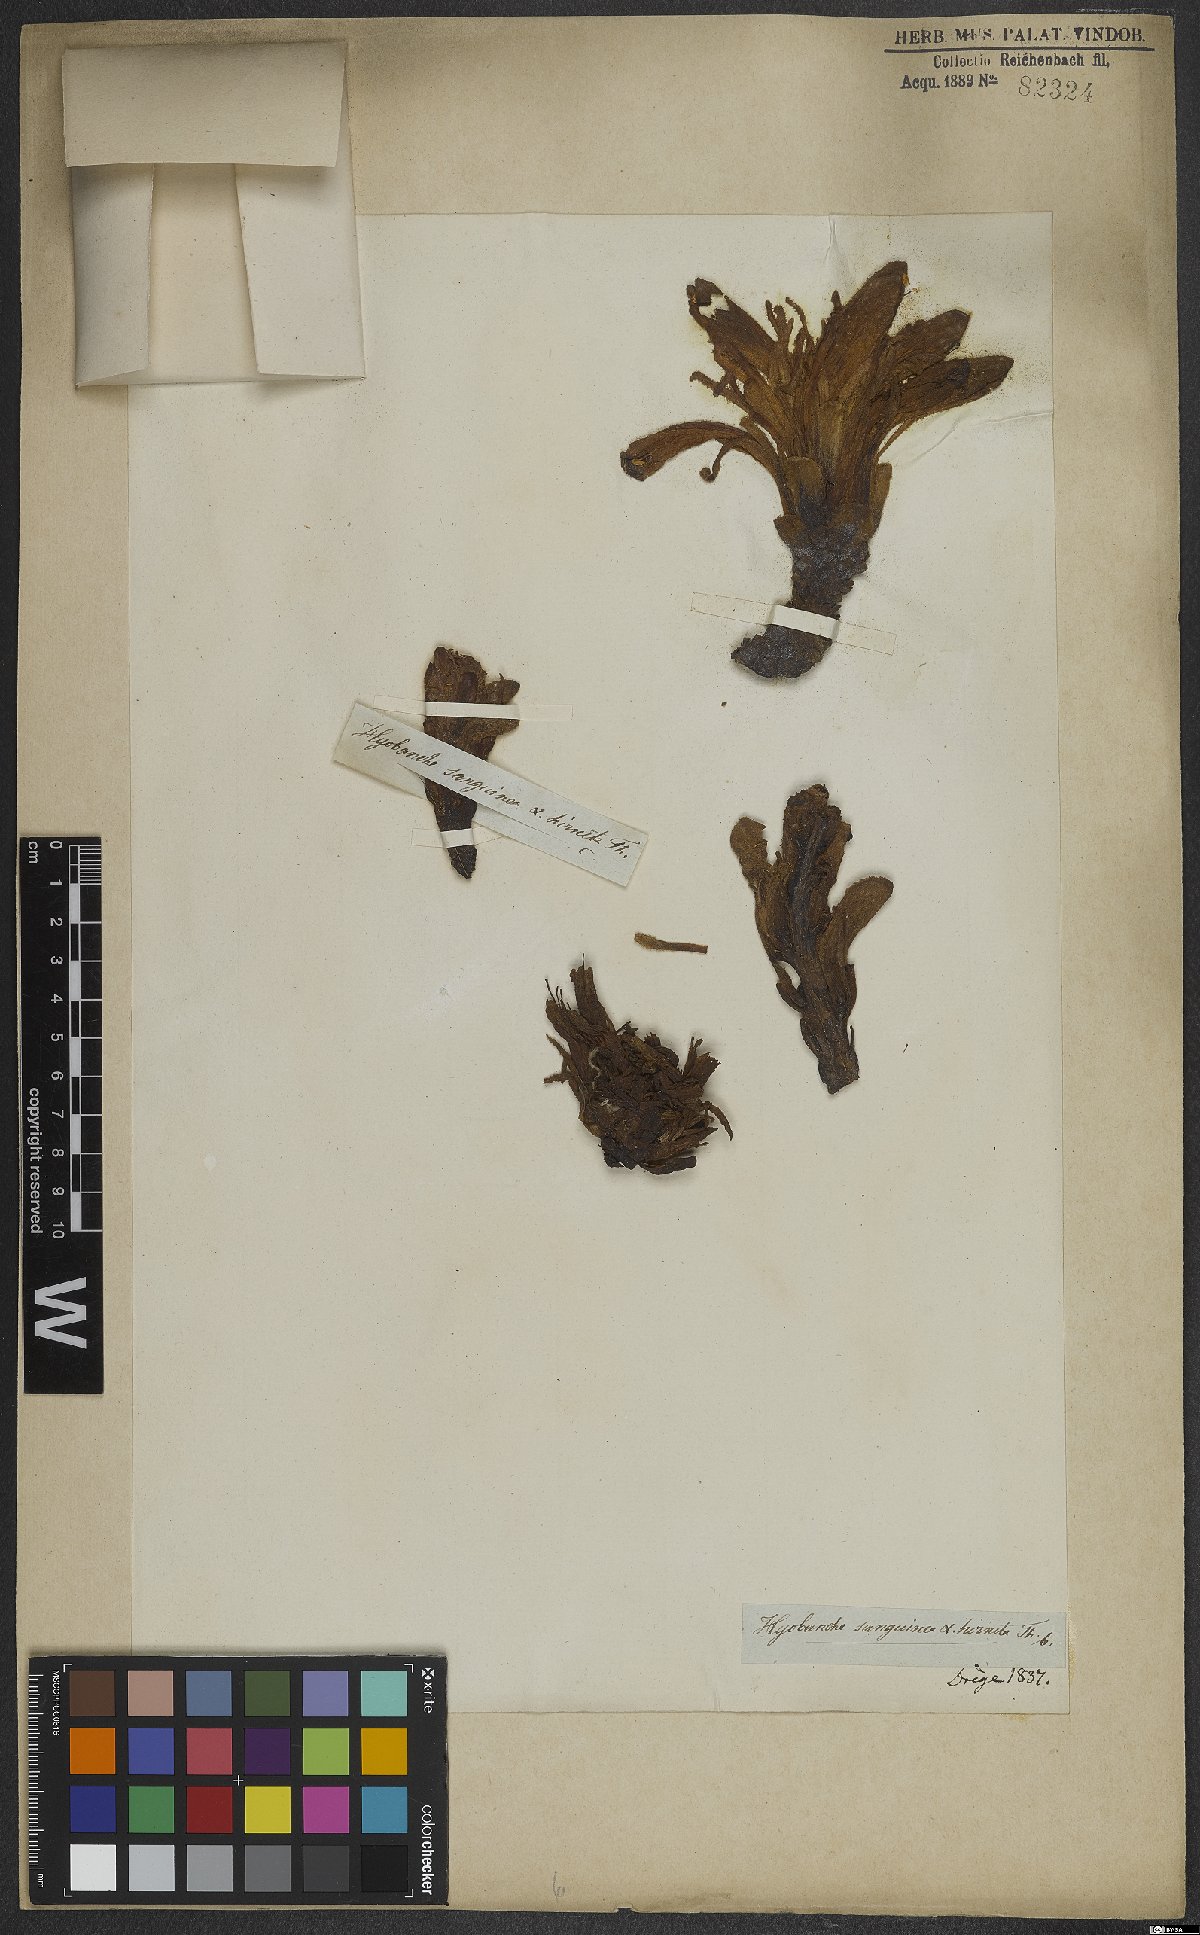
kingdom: Plantae
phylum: Tracheophyta
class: Magnoliopsida
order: Lamiales
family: Orobanchaceae
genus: Hyobanche
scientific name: Hyobanche sanguinea
